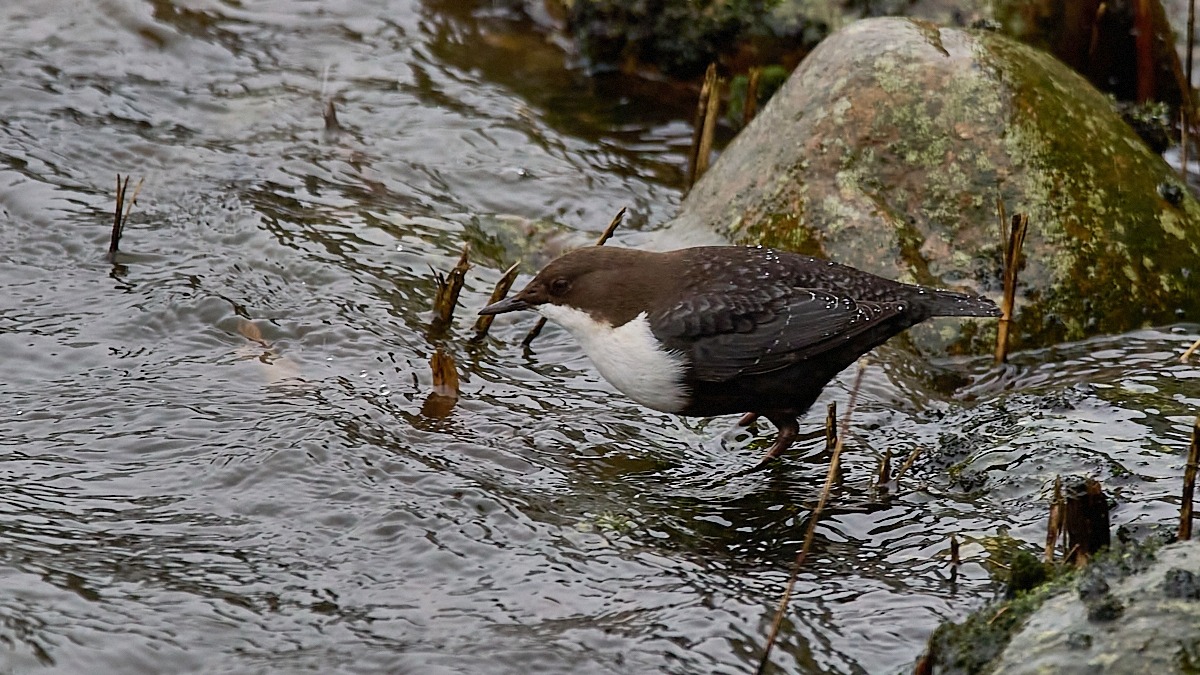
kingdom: Animalia
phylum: Chordata
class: Aves
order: Passeriformes
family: Cinclidae
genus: Cinclus
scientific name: Cinclus cinclus
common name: Vandstær
